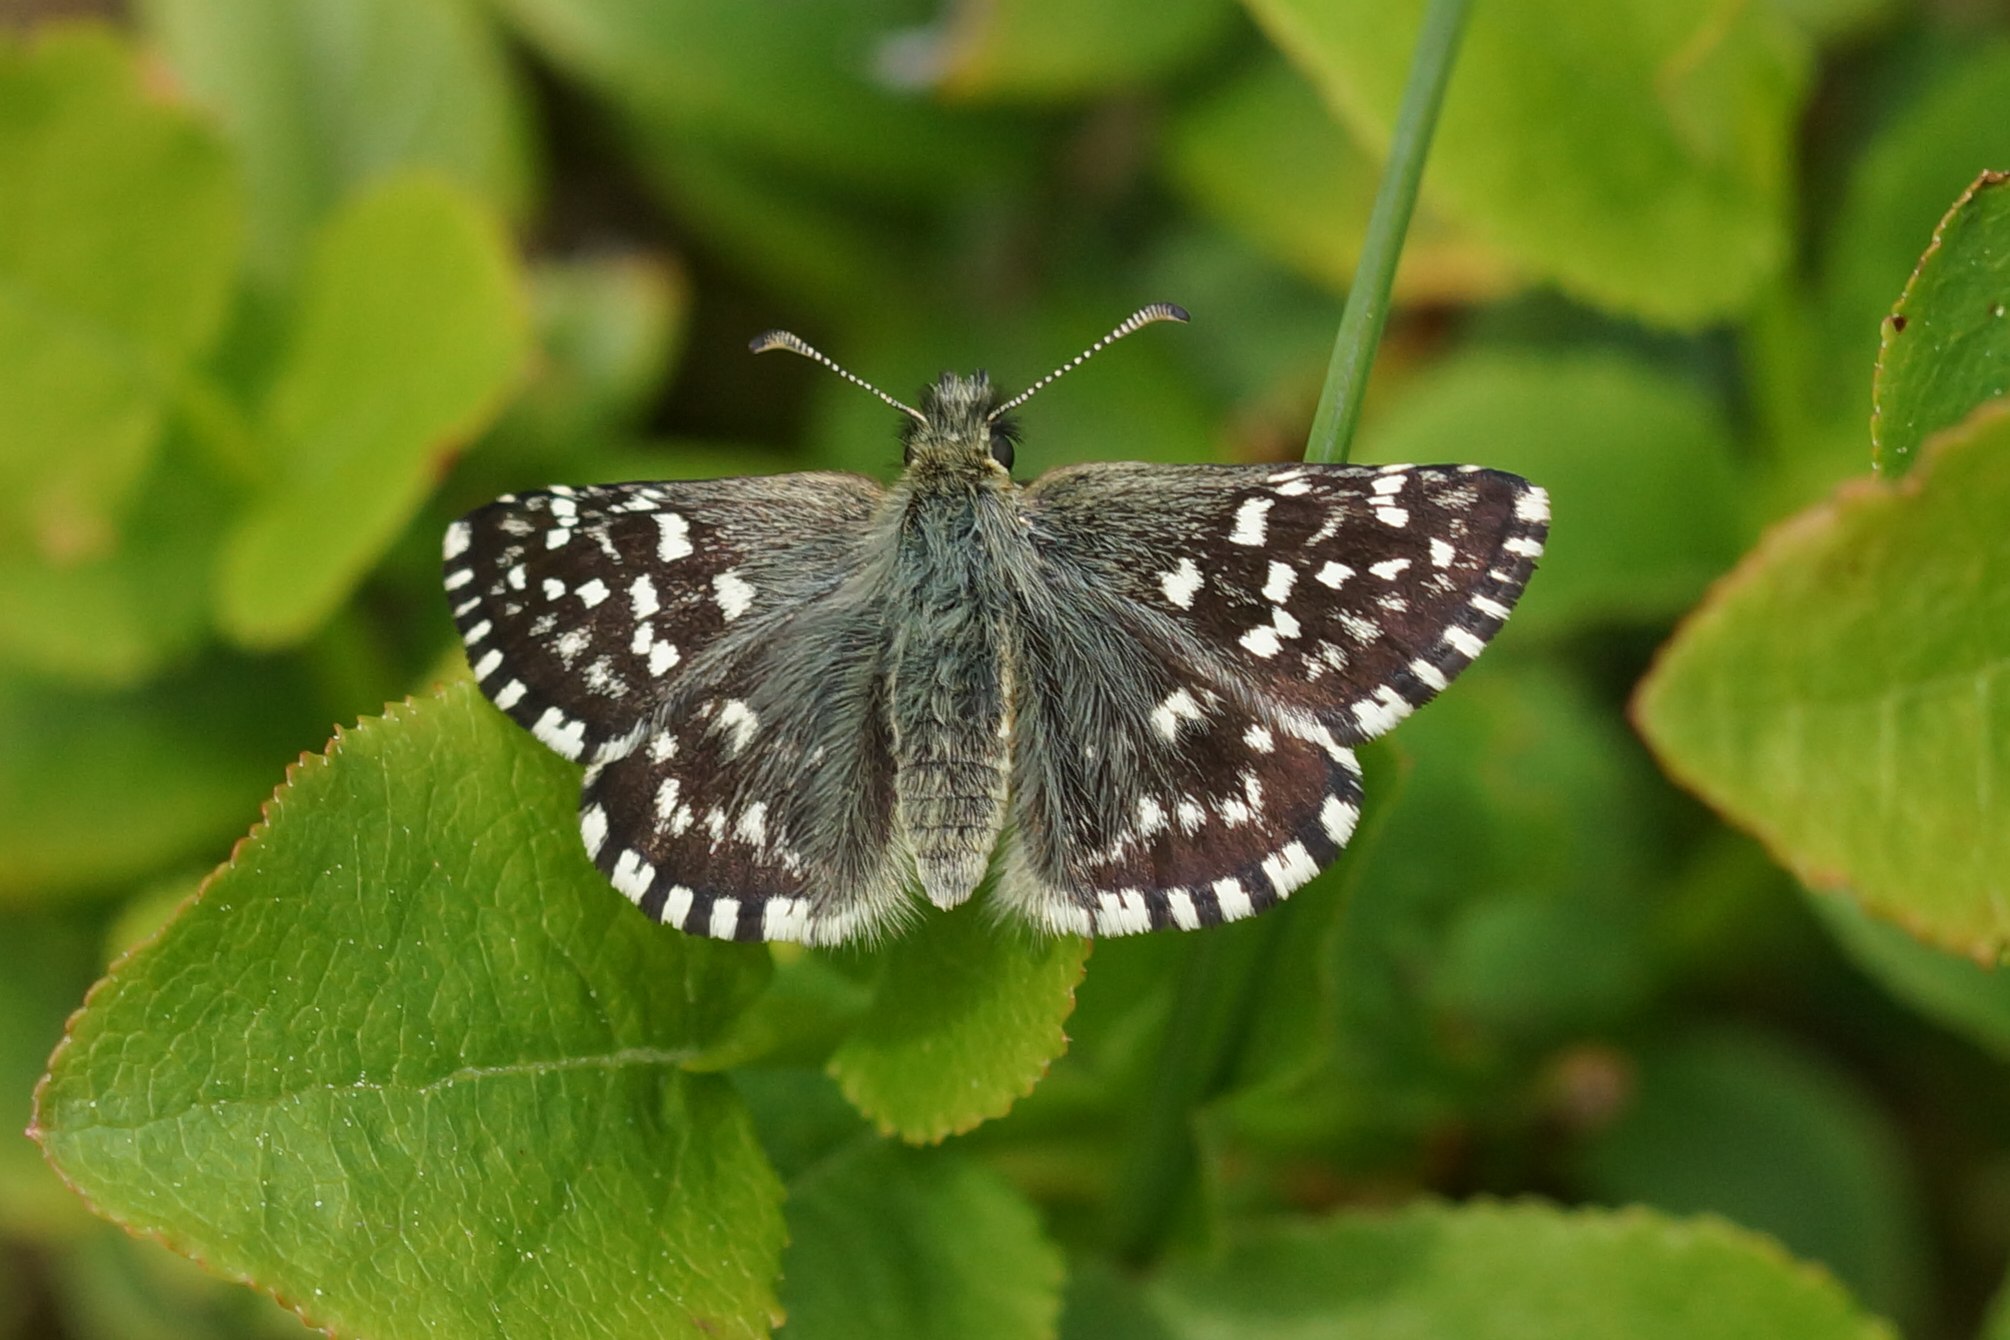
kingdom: Animalia
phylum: Arthropoda
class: Insecta
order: Lepidoptera
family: Hesperiidae
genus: Pyrgus
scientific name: Pyrgus malvae
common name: Spættet bredpande
